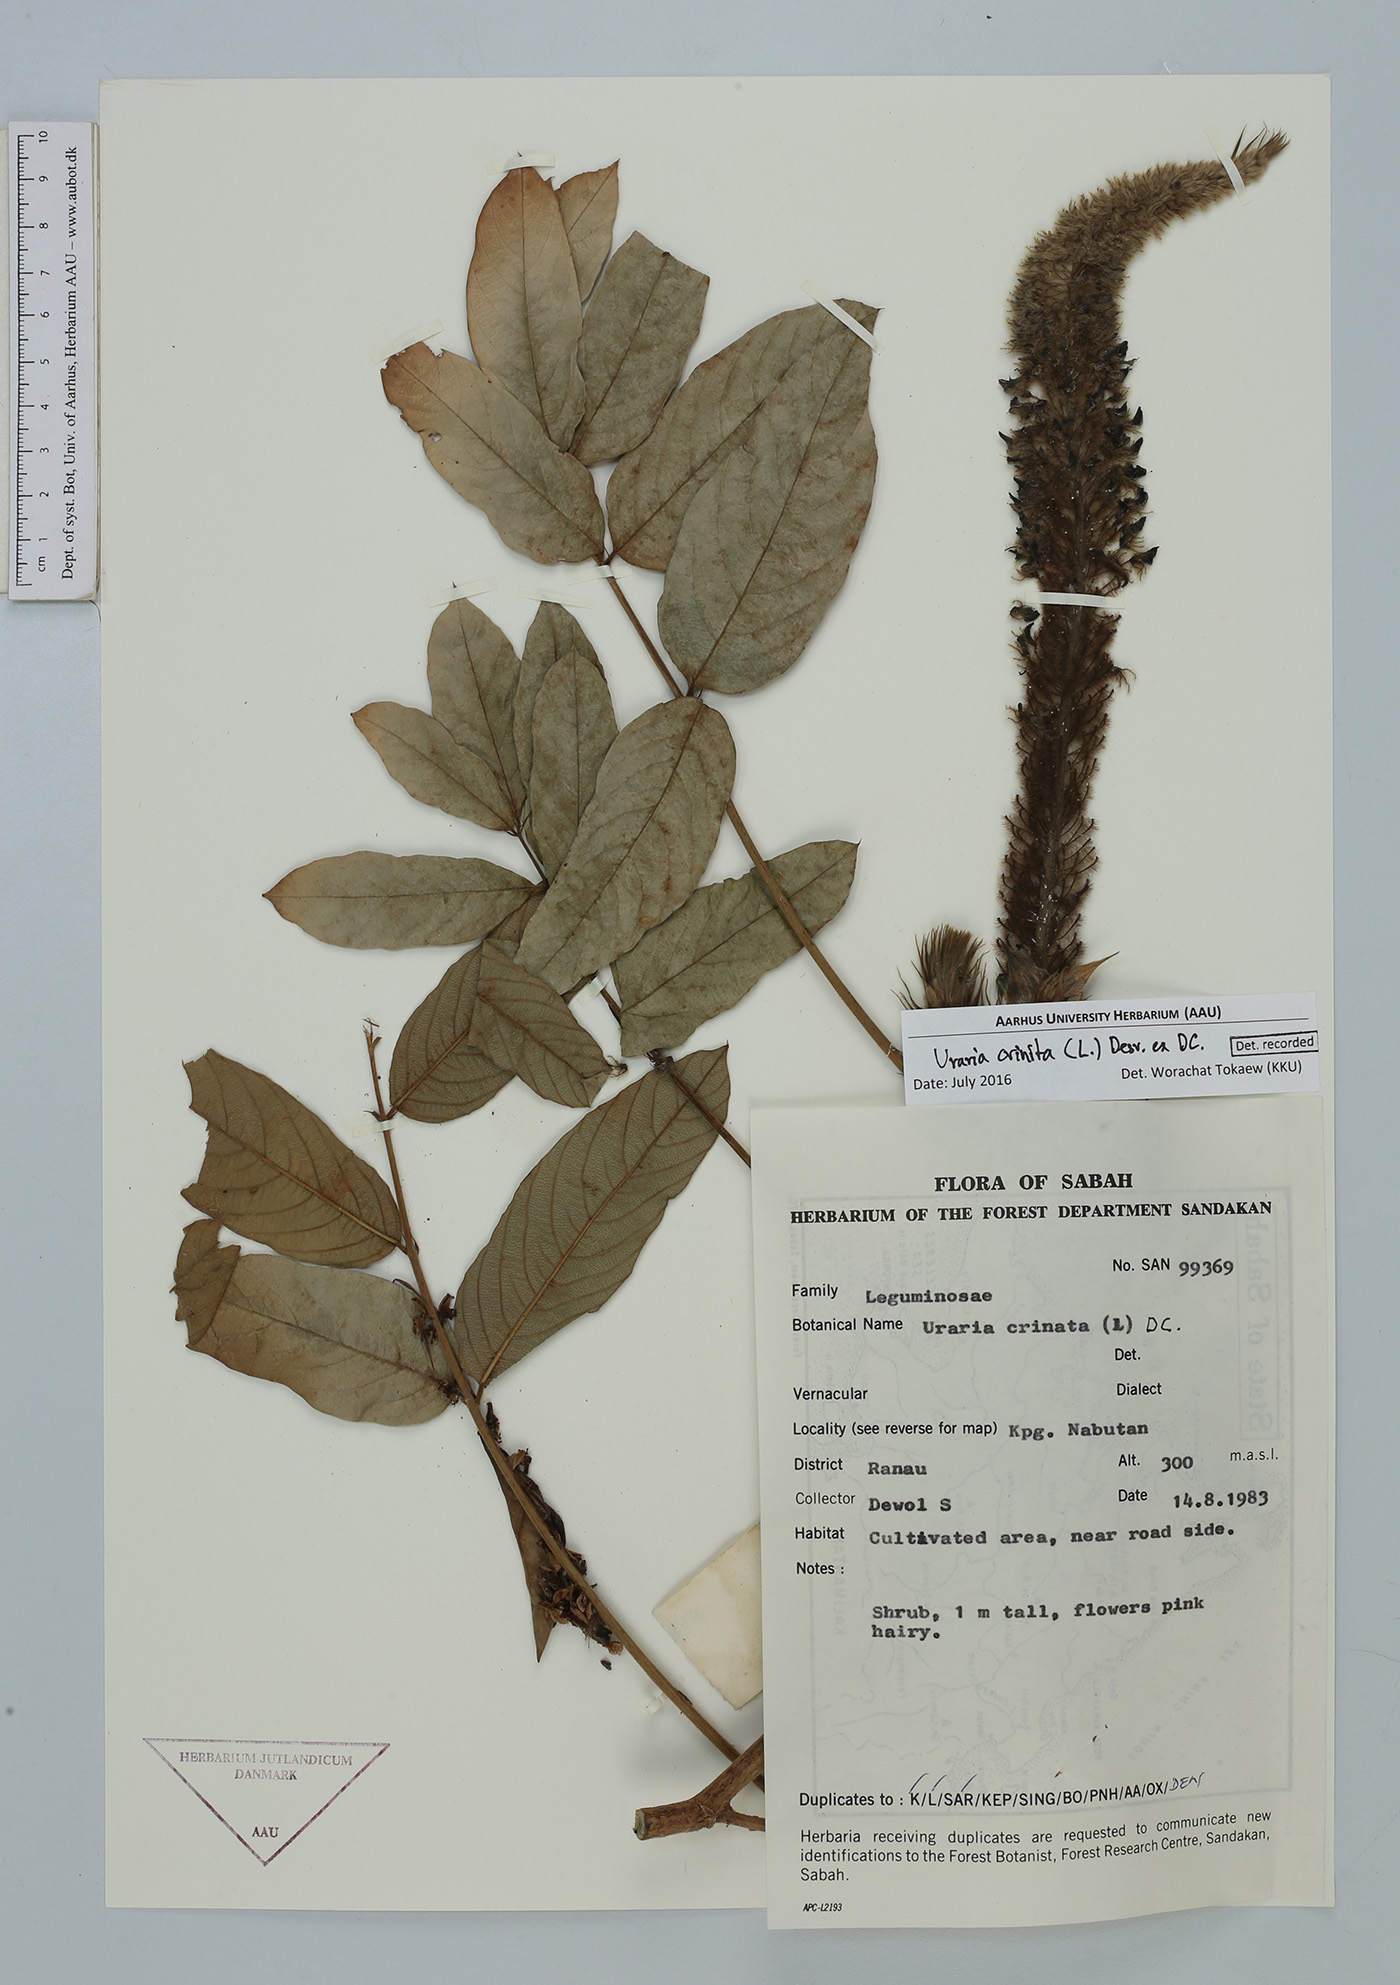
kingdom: Plantae
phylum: Tracheophyta
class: Magnoliopsida
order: Fabales
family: Fabaceae
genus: Uraria
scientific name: Uraria crinita
